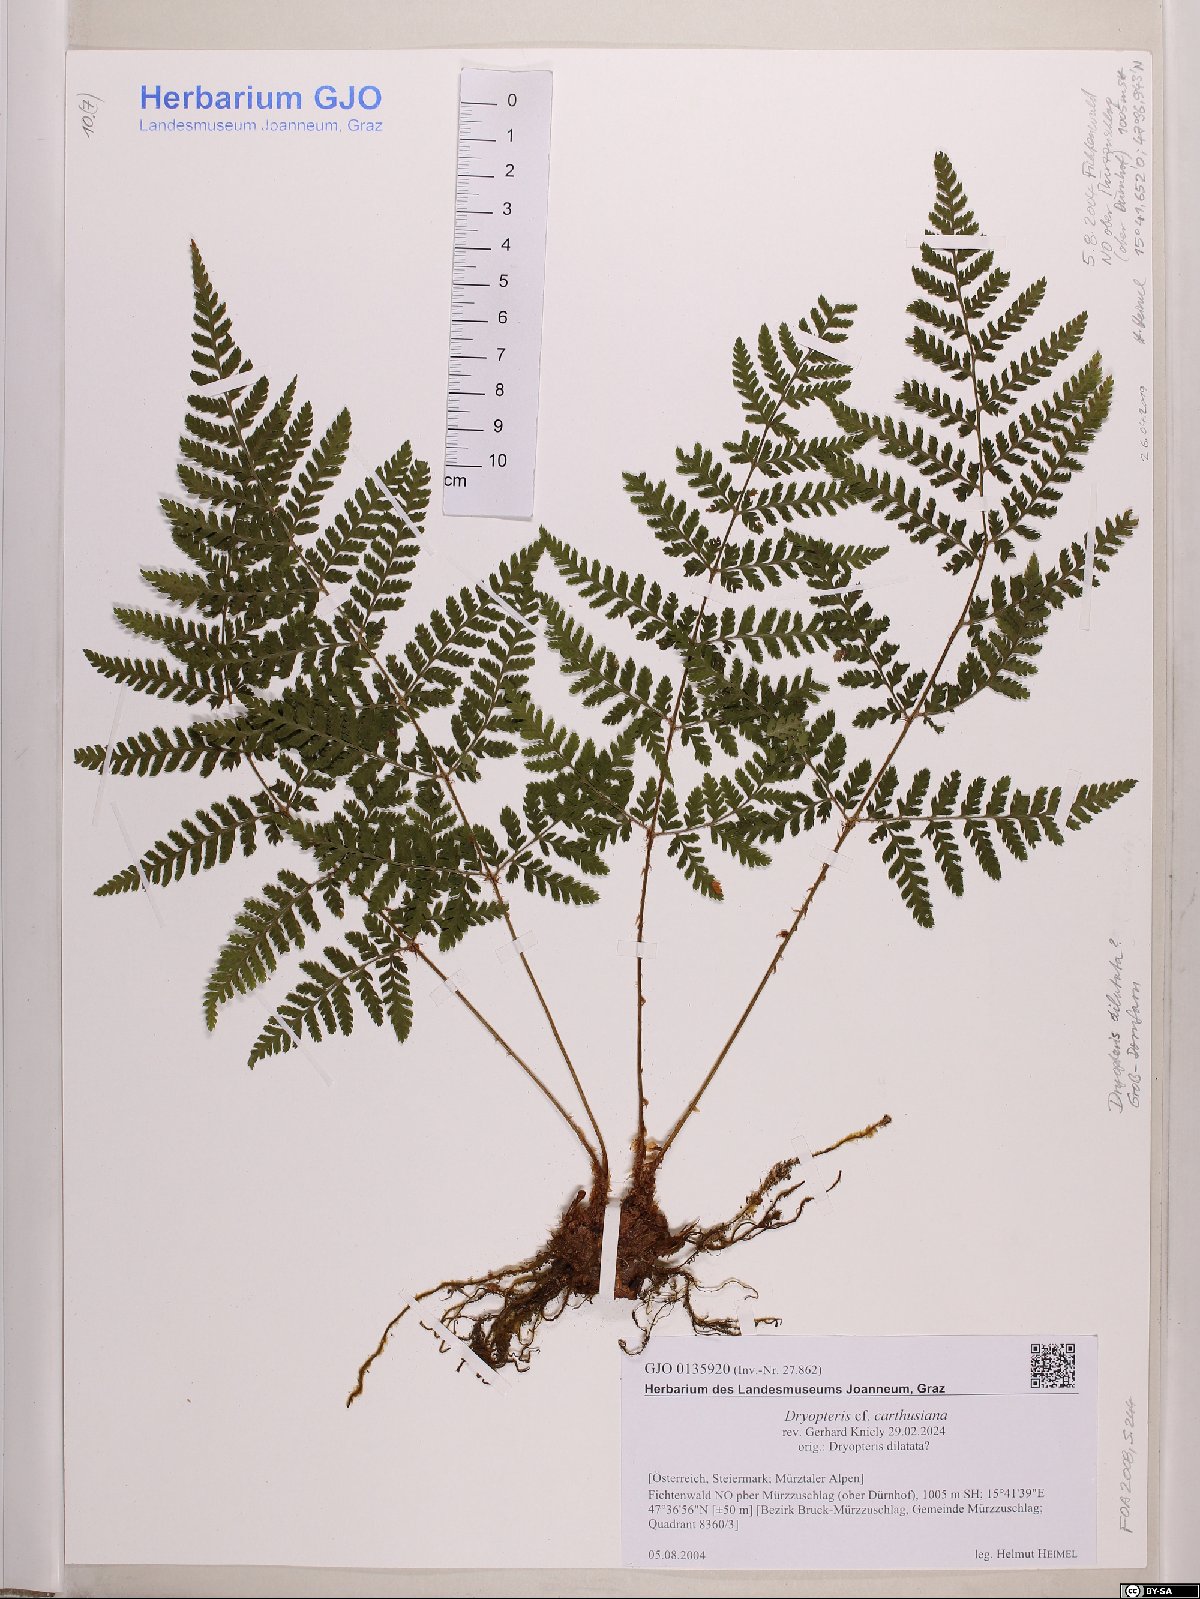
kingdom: Plantae
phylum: Tracheophyta
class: Polypodiopsida
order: Polypodiales
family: Dryopteridaceae
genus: Dryopteris
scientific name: Dryopteris carthusiana
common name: Narrow buckler-fern
